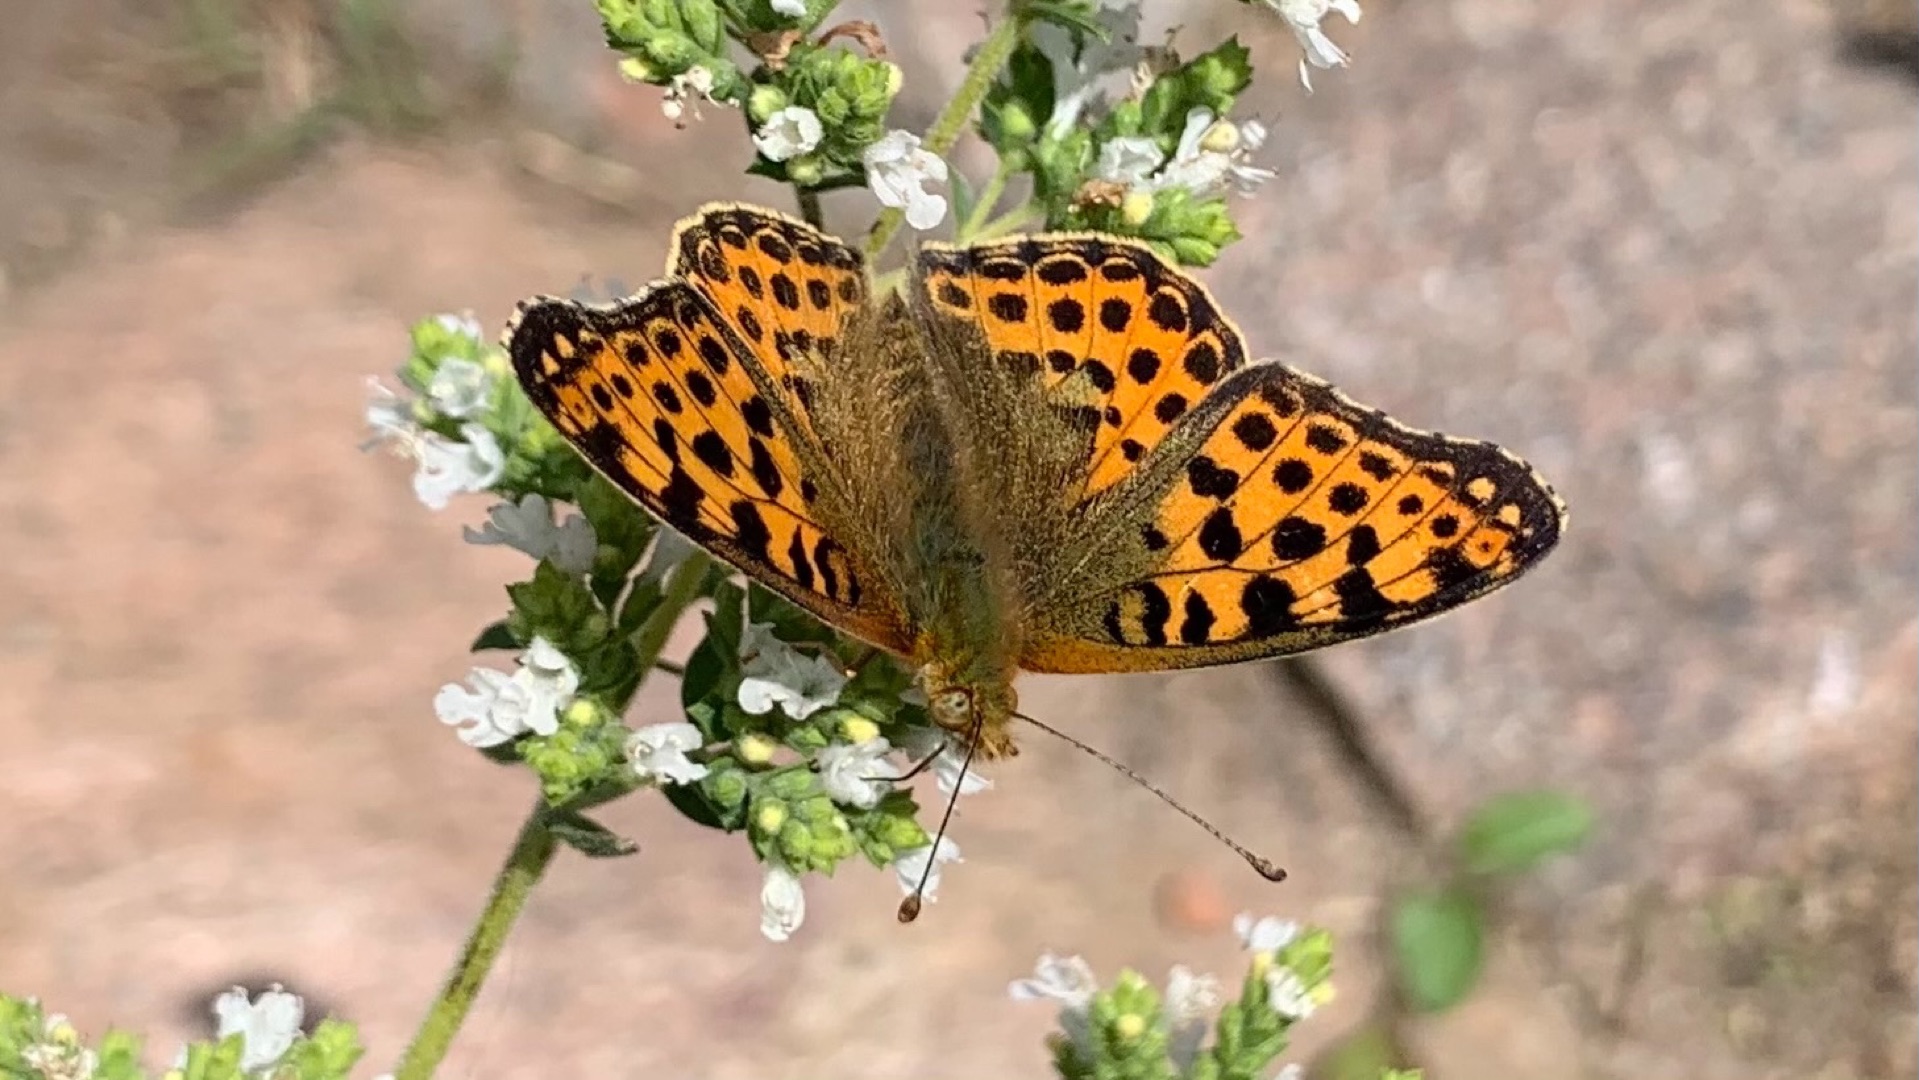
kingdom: Animalia
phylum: Arthropoda
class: Insecta
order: Lepidoptera
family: Nymphalidae
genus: Issoria
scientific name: Issoria lathonia
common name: Storplettet perlemorsommerfugl
